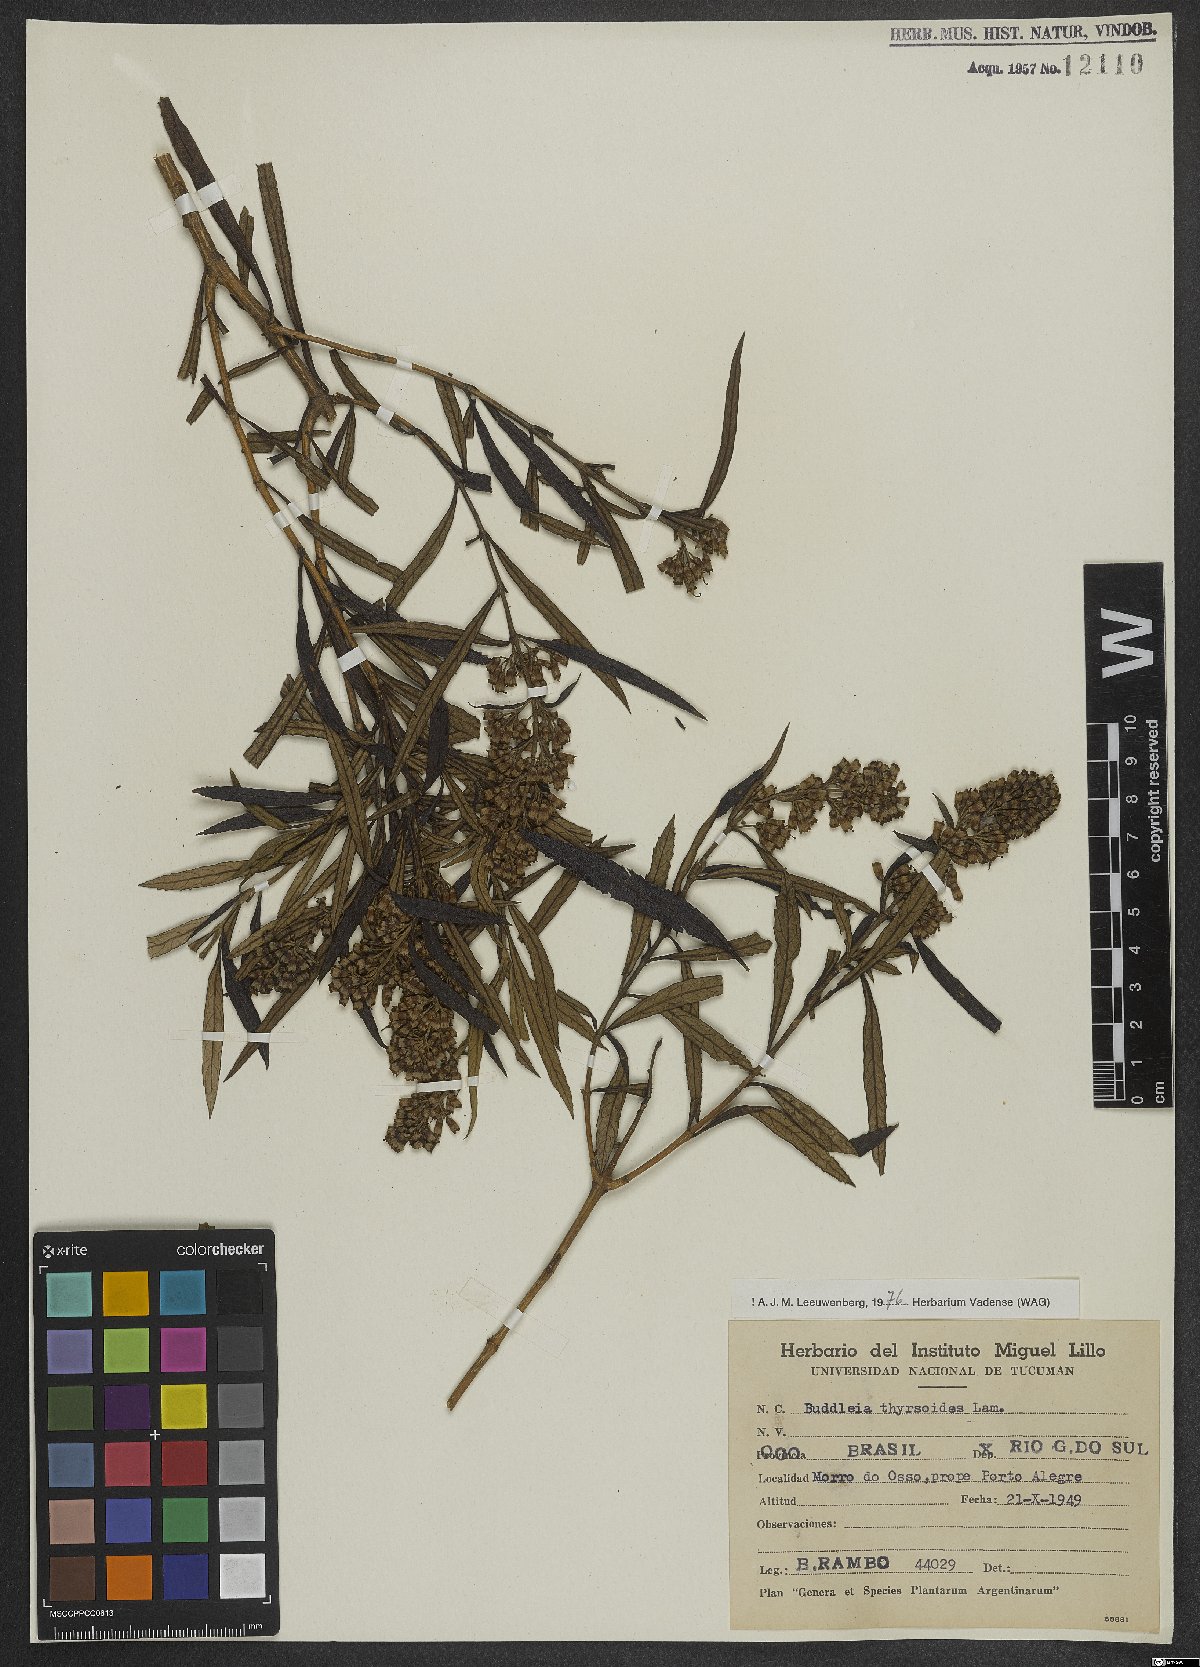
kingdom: Plantae
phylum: Tracheophyta
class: Magnoliopsida
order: Lamiales
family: Scrophulariaceae
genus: Buddleja
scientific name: Buddleja thyrsoides
